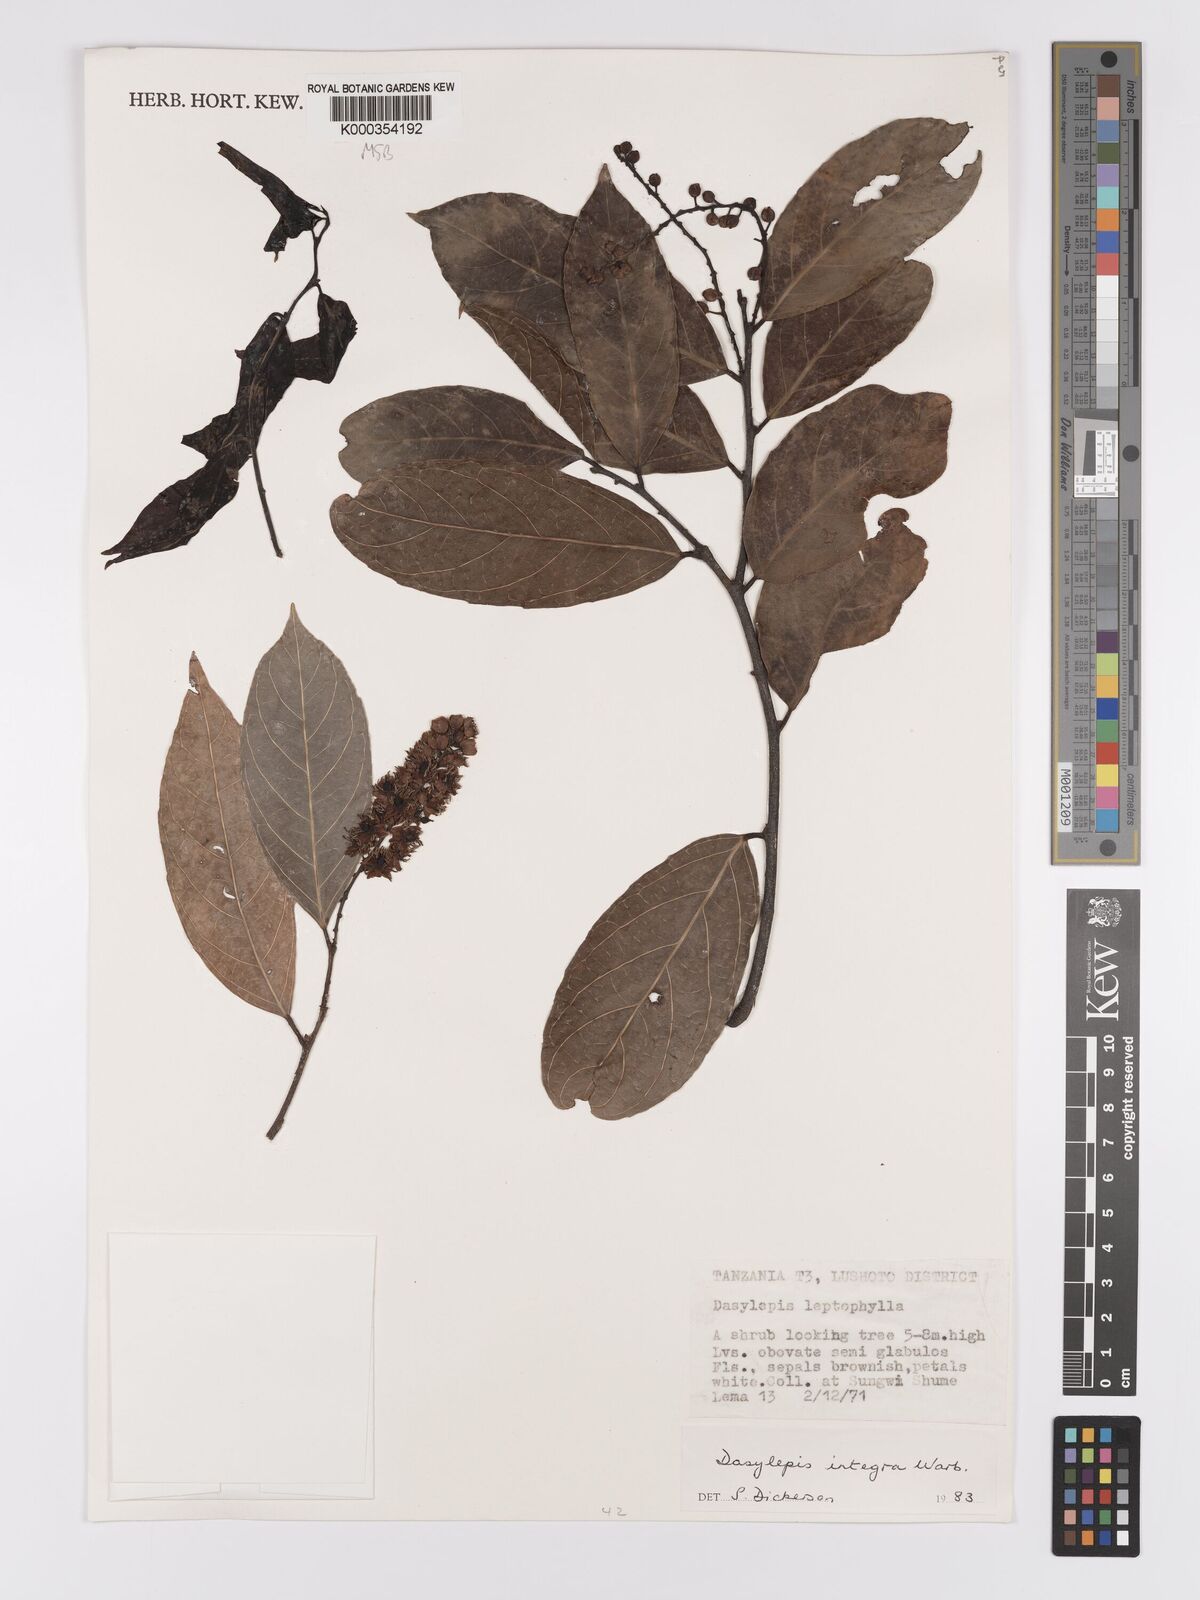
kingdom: Plantae
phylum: Tracheophyta
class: Magnoliopsida
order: Malpighiales
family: Achariaceae
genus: Dasylepis
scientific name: Dasylepis integra
